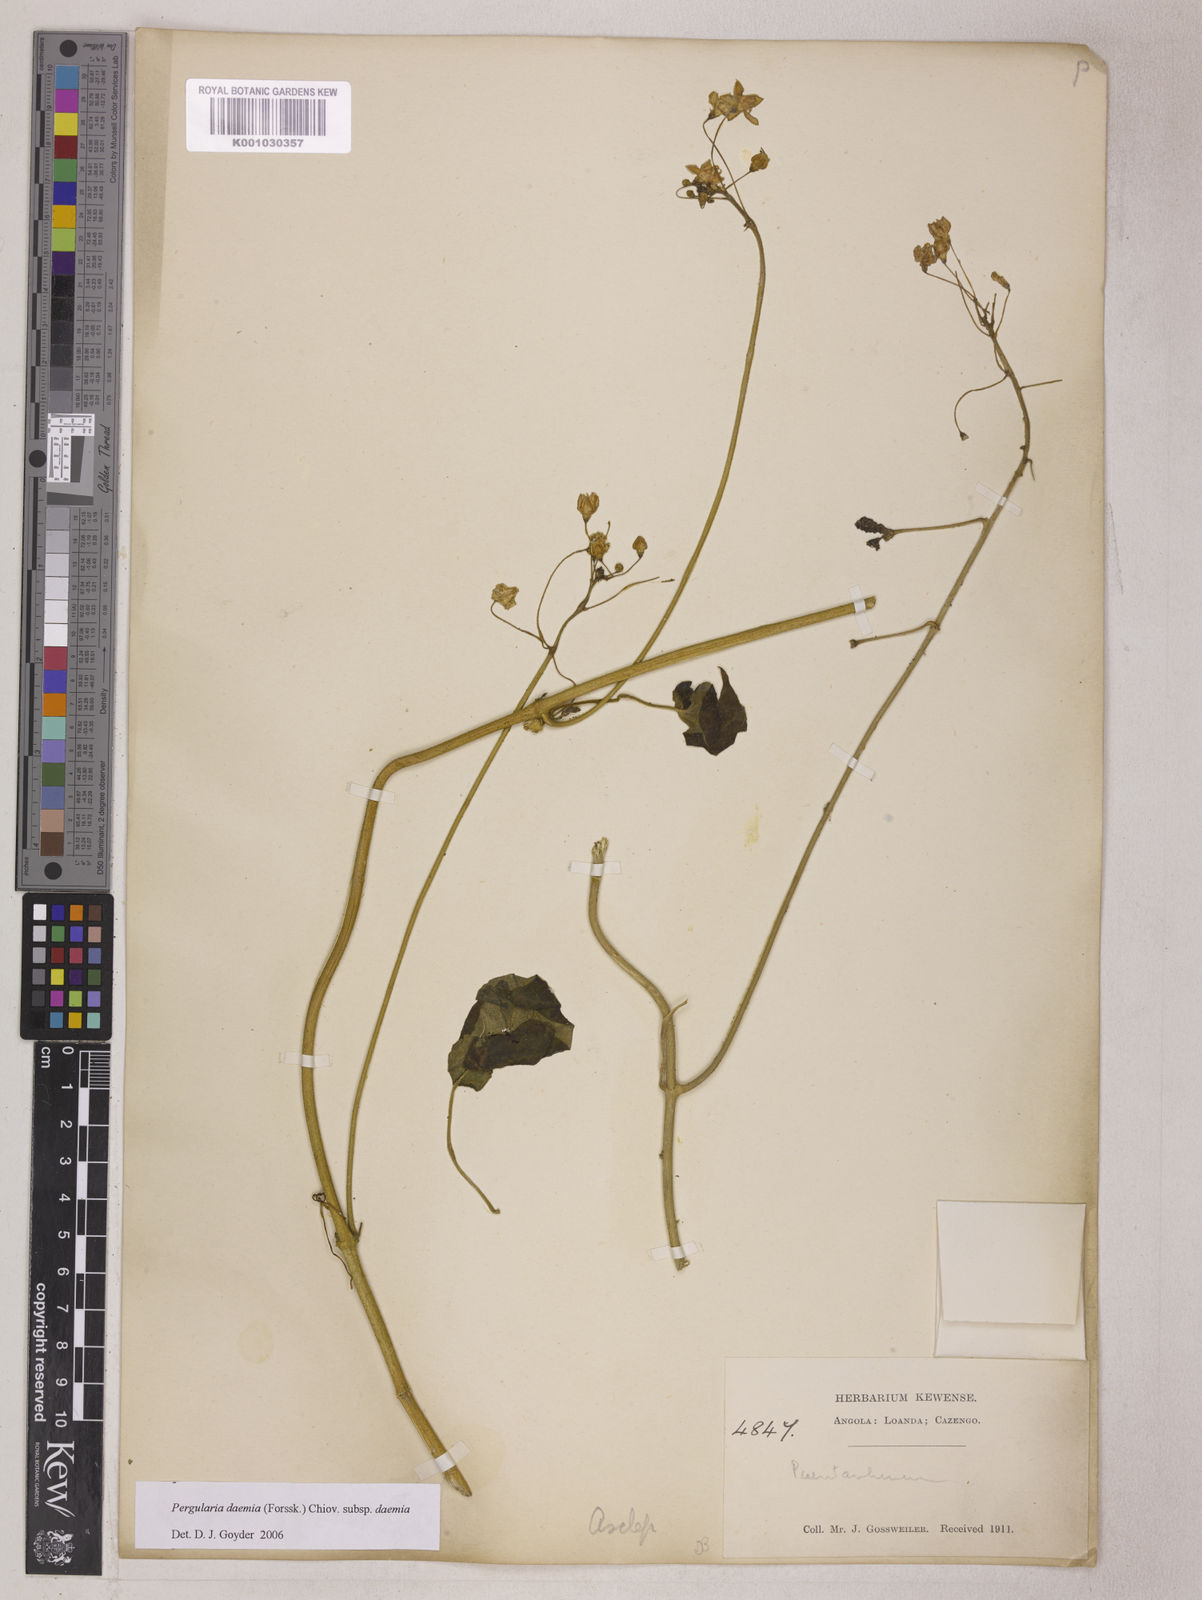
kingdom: Plantae
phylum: Tracheophyta
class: Magnoliopsida
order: Gentianales
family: Apocynaceae
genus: Pergularia
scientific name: Pergularia daemia
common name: Trellis-vine
